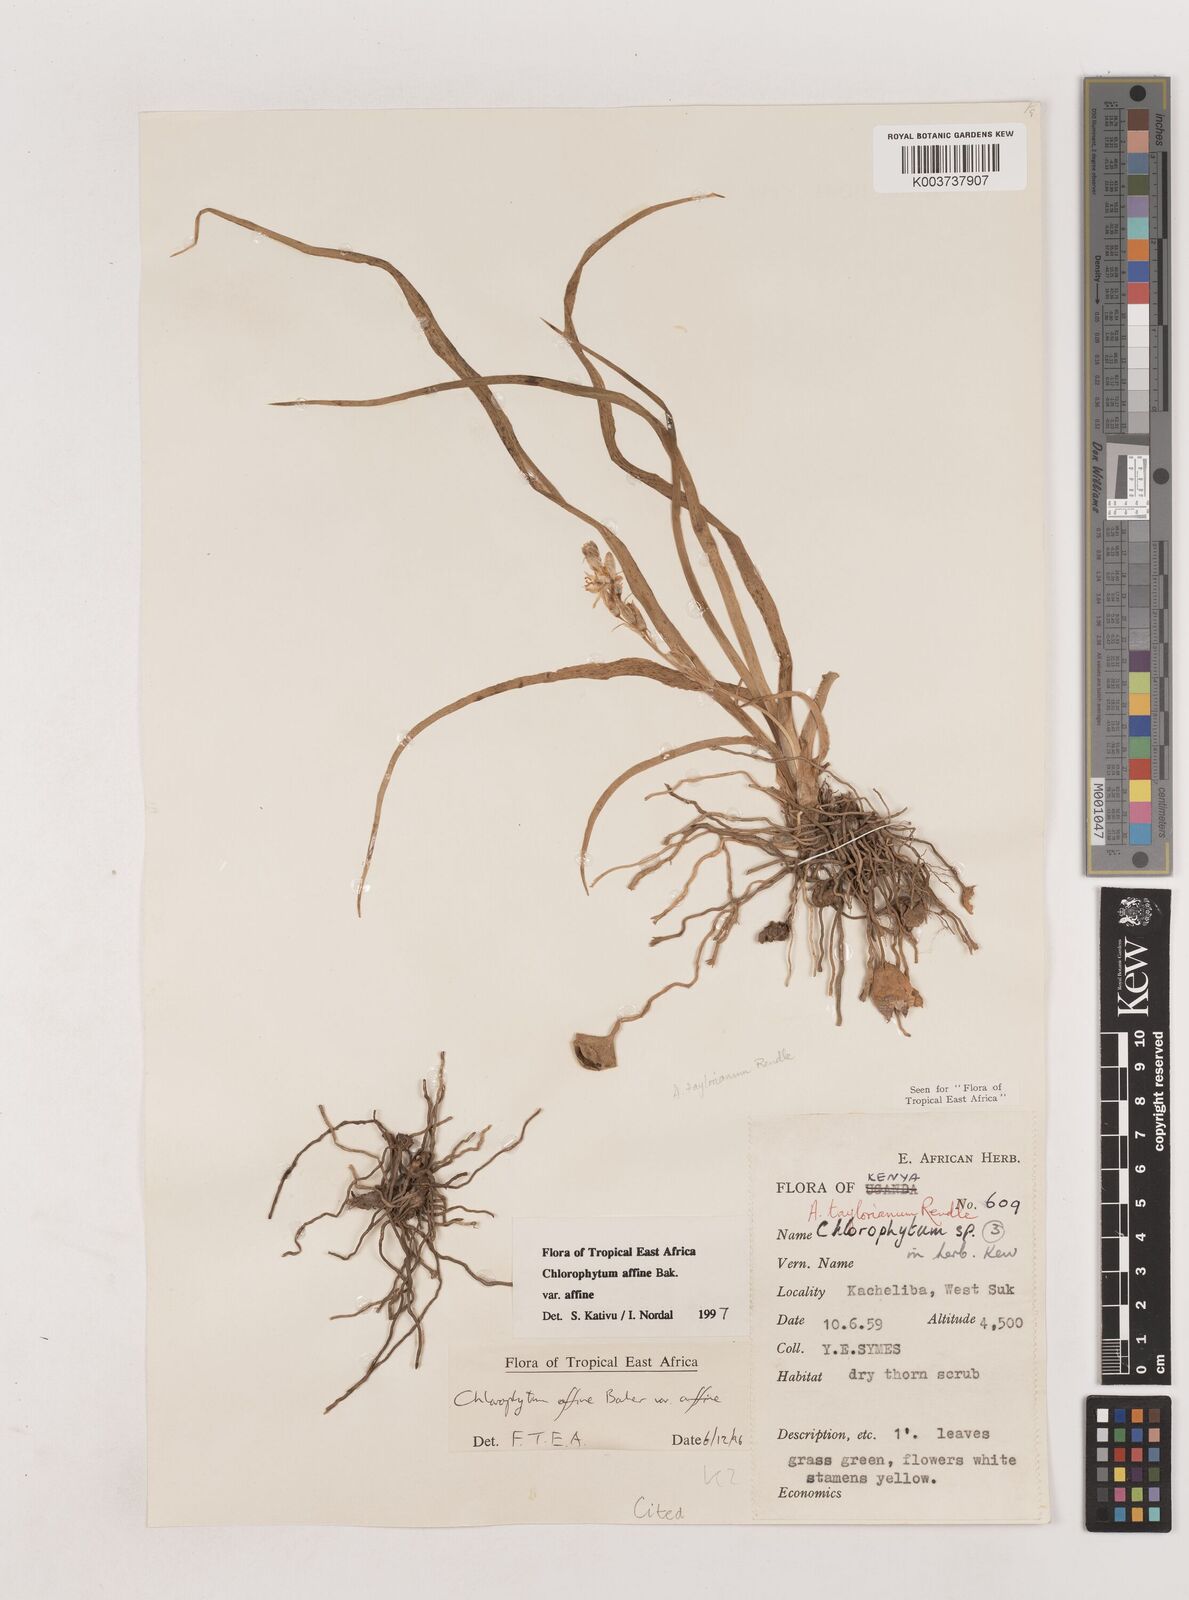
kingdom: Plantae
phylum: Tracheophyta
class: Liliopsida
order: Asparagales
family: Asparagaceae
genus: Chlorophytum
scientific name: Chlorophytum affine
